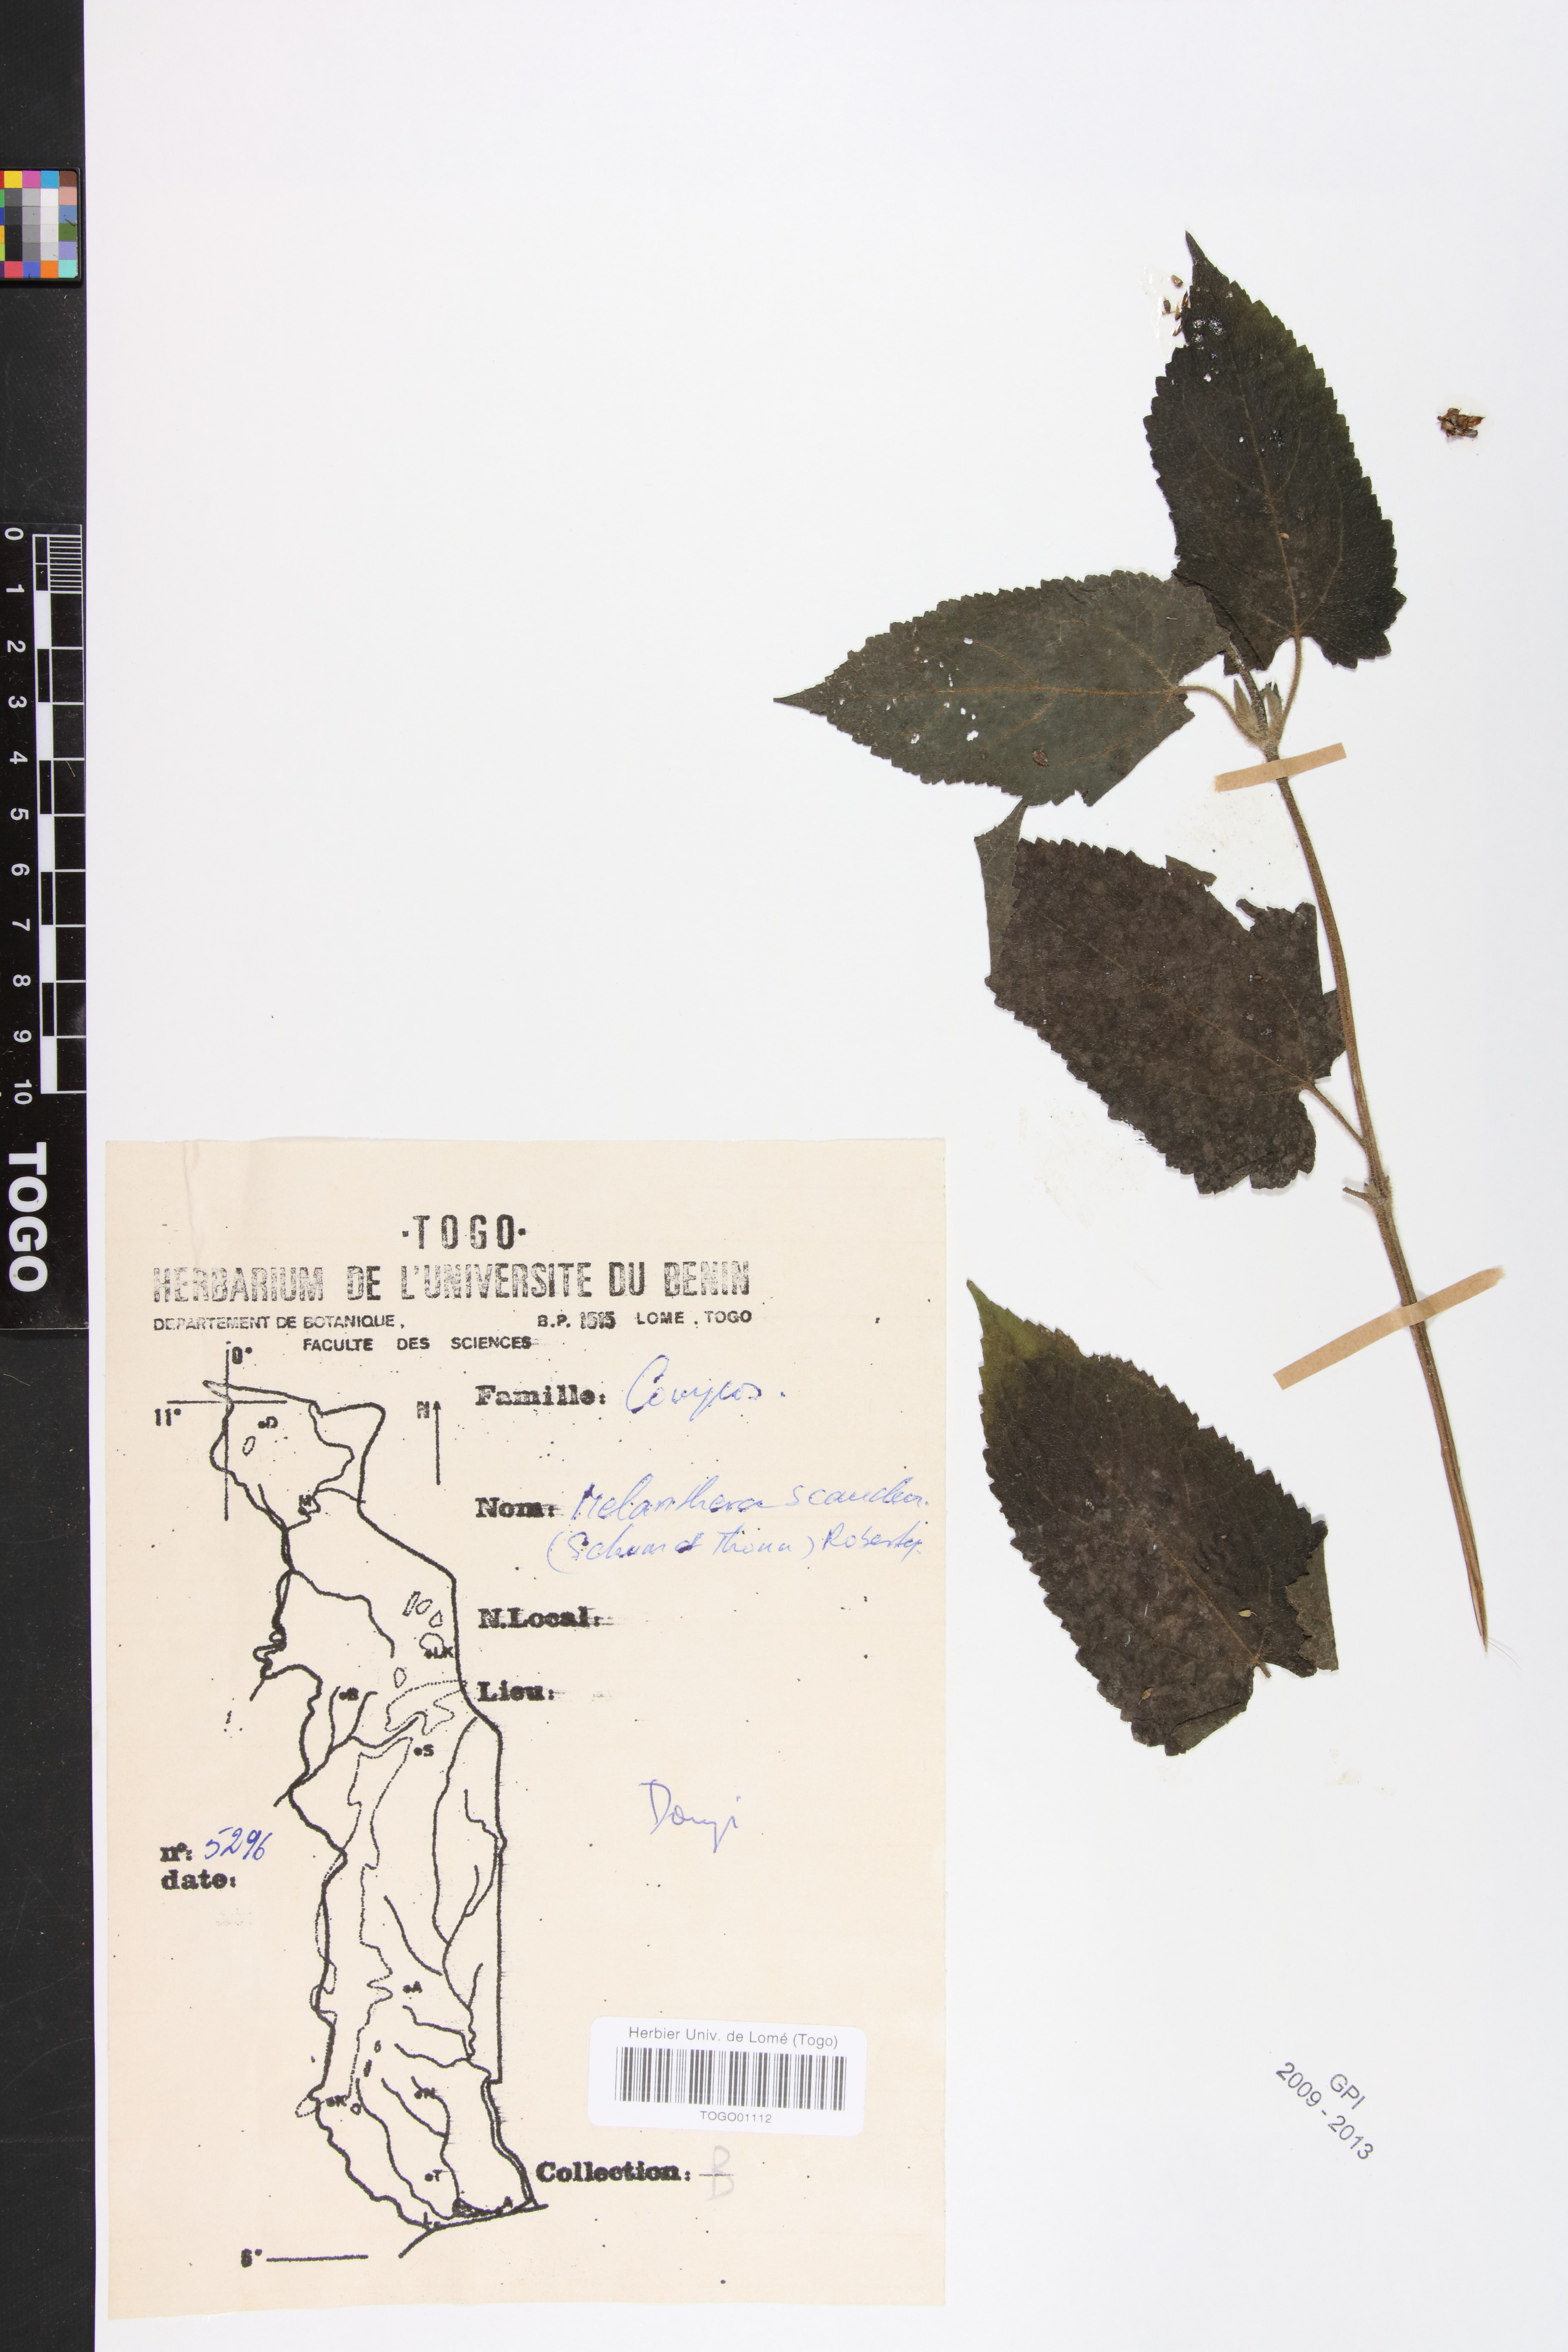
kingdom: Plantae
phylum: Tracheophyta
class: Magnoliopsida
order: Asterales
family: Asteraceae
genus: Melanthera
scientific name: Melanthera scandens
